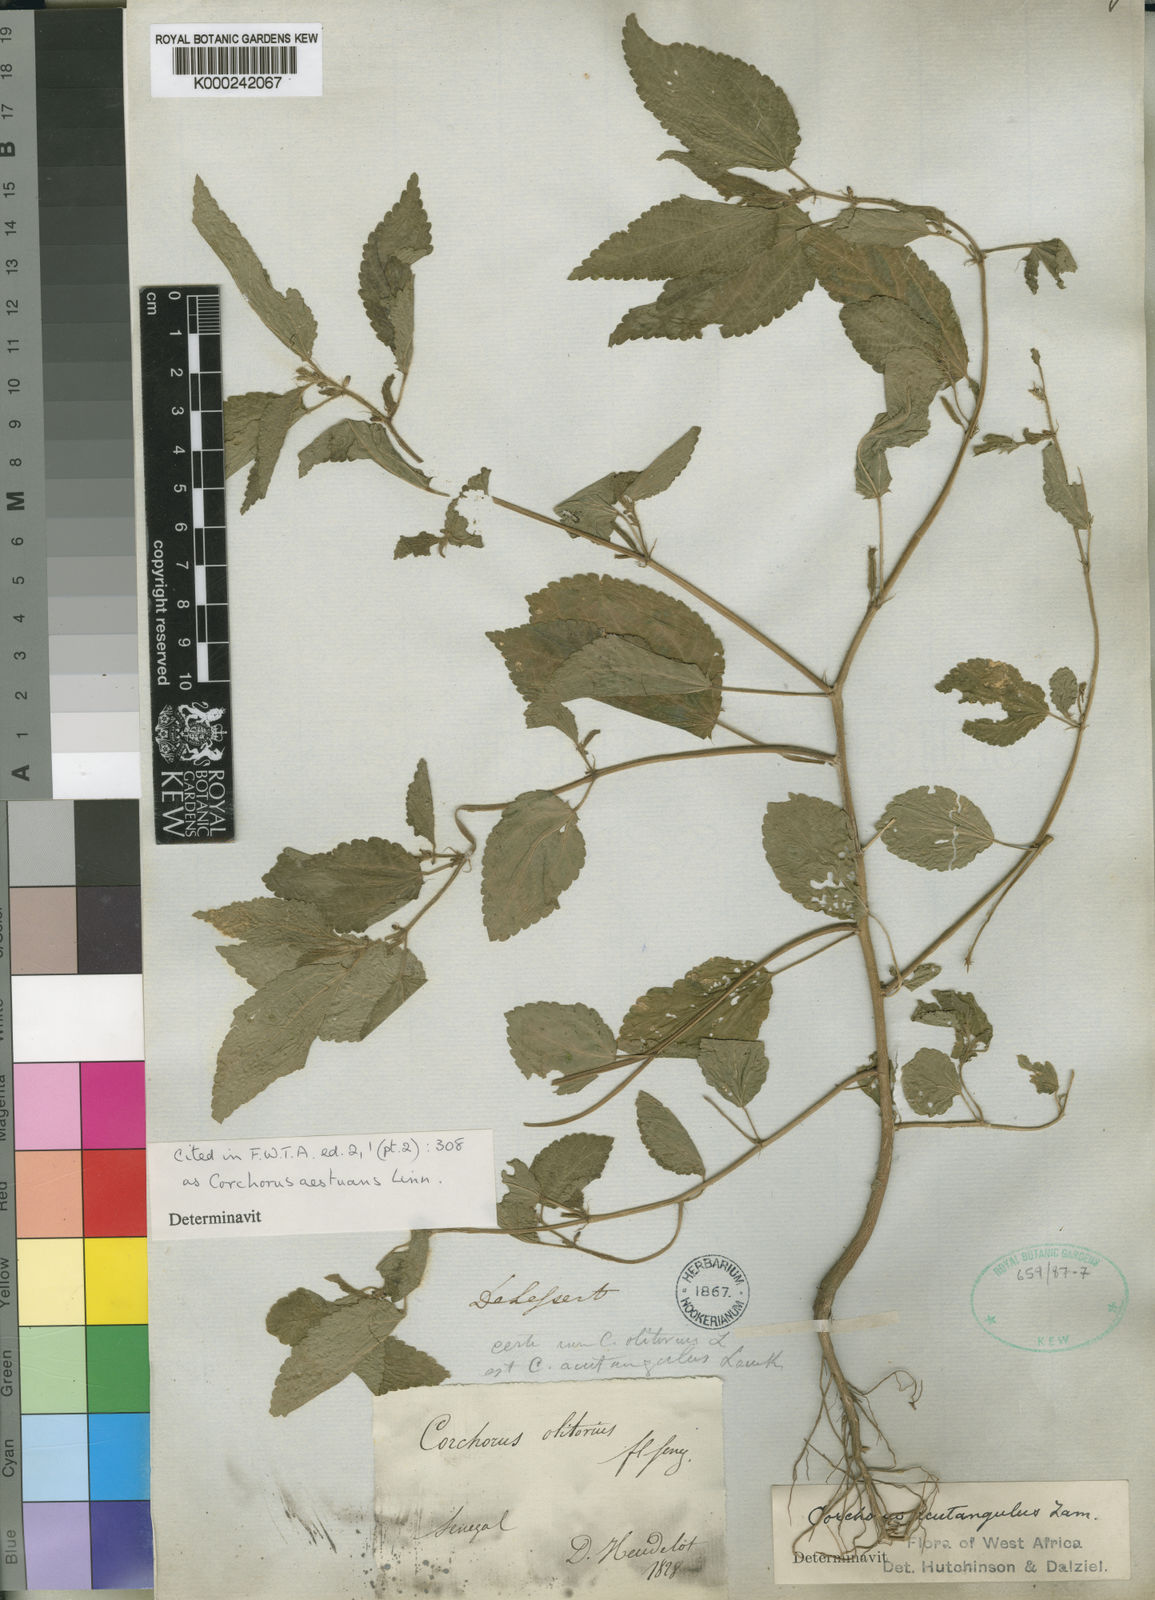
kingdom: Plantae
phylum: Tracheophyta
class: Magnoliopsida
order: Malvales
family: Malvaceae
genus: Corchorus
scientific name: Corchorus aestuans
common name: Jute
